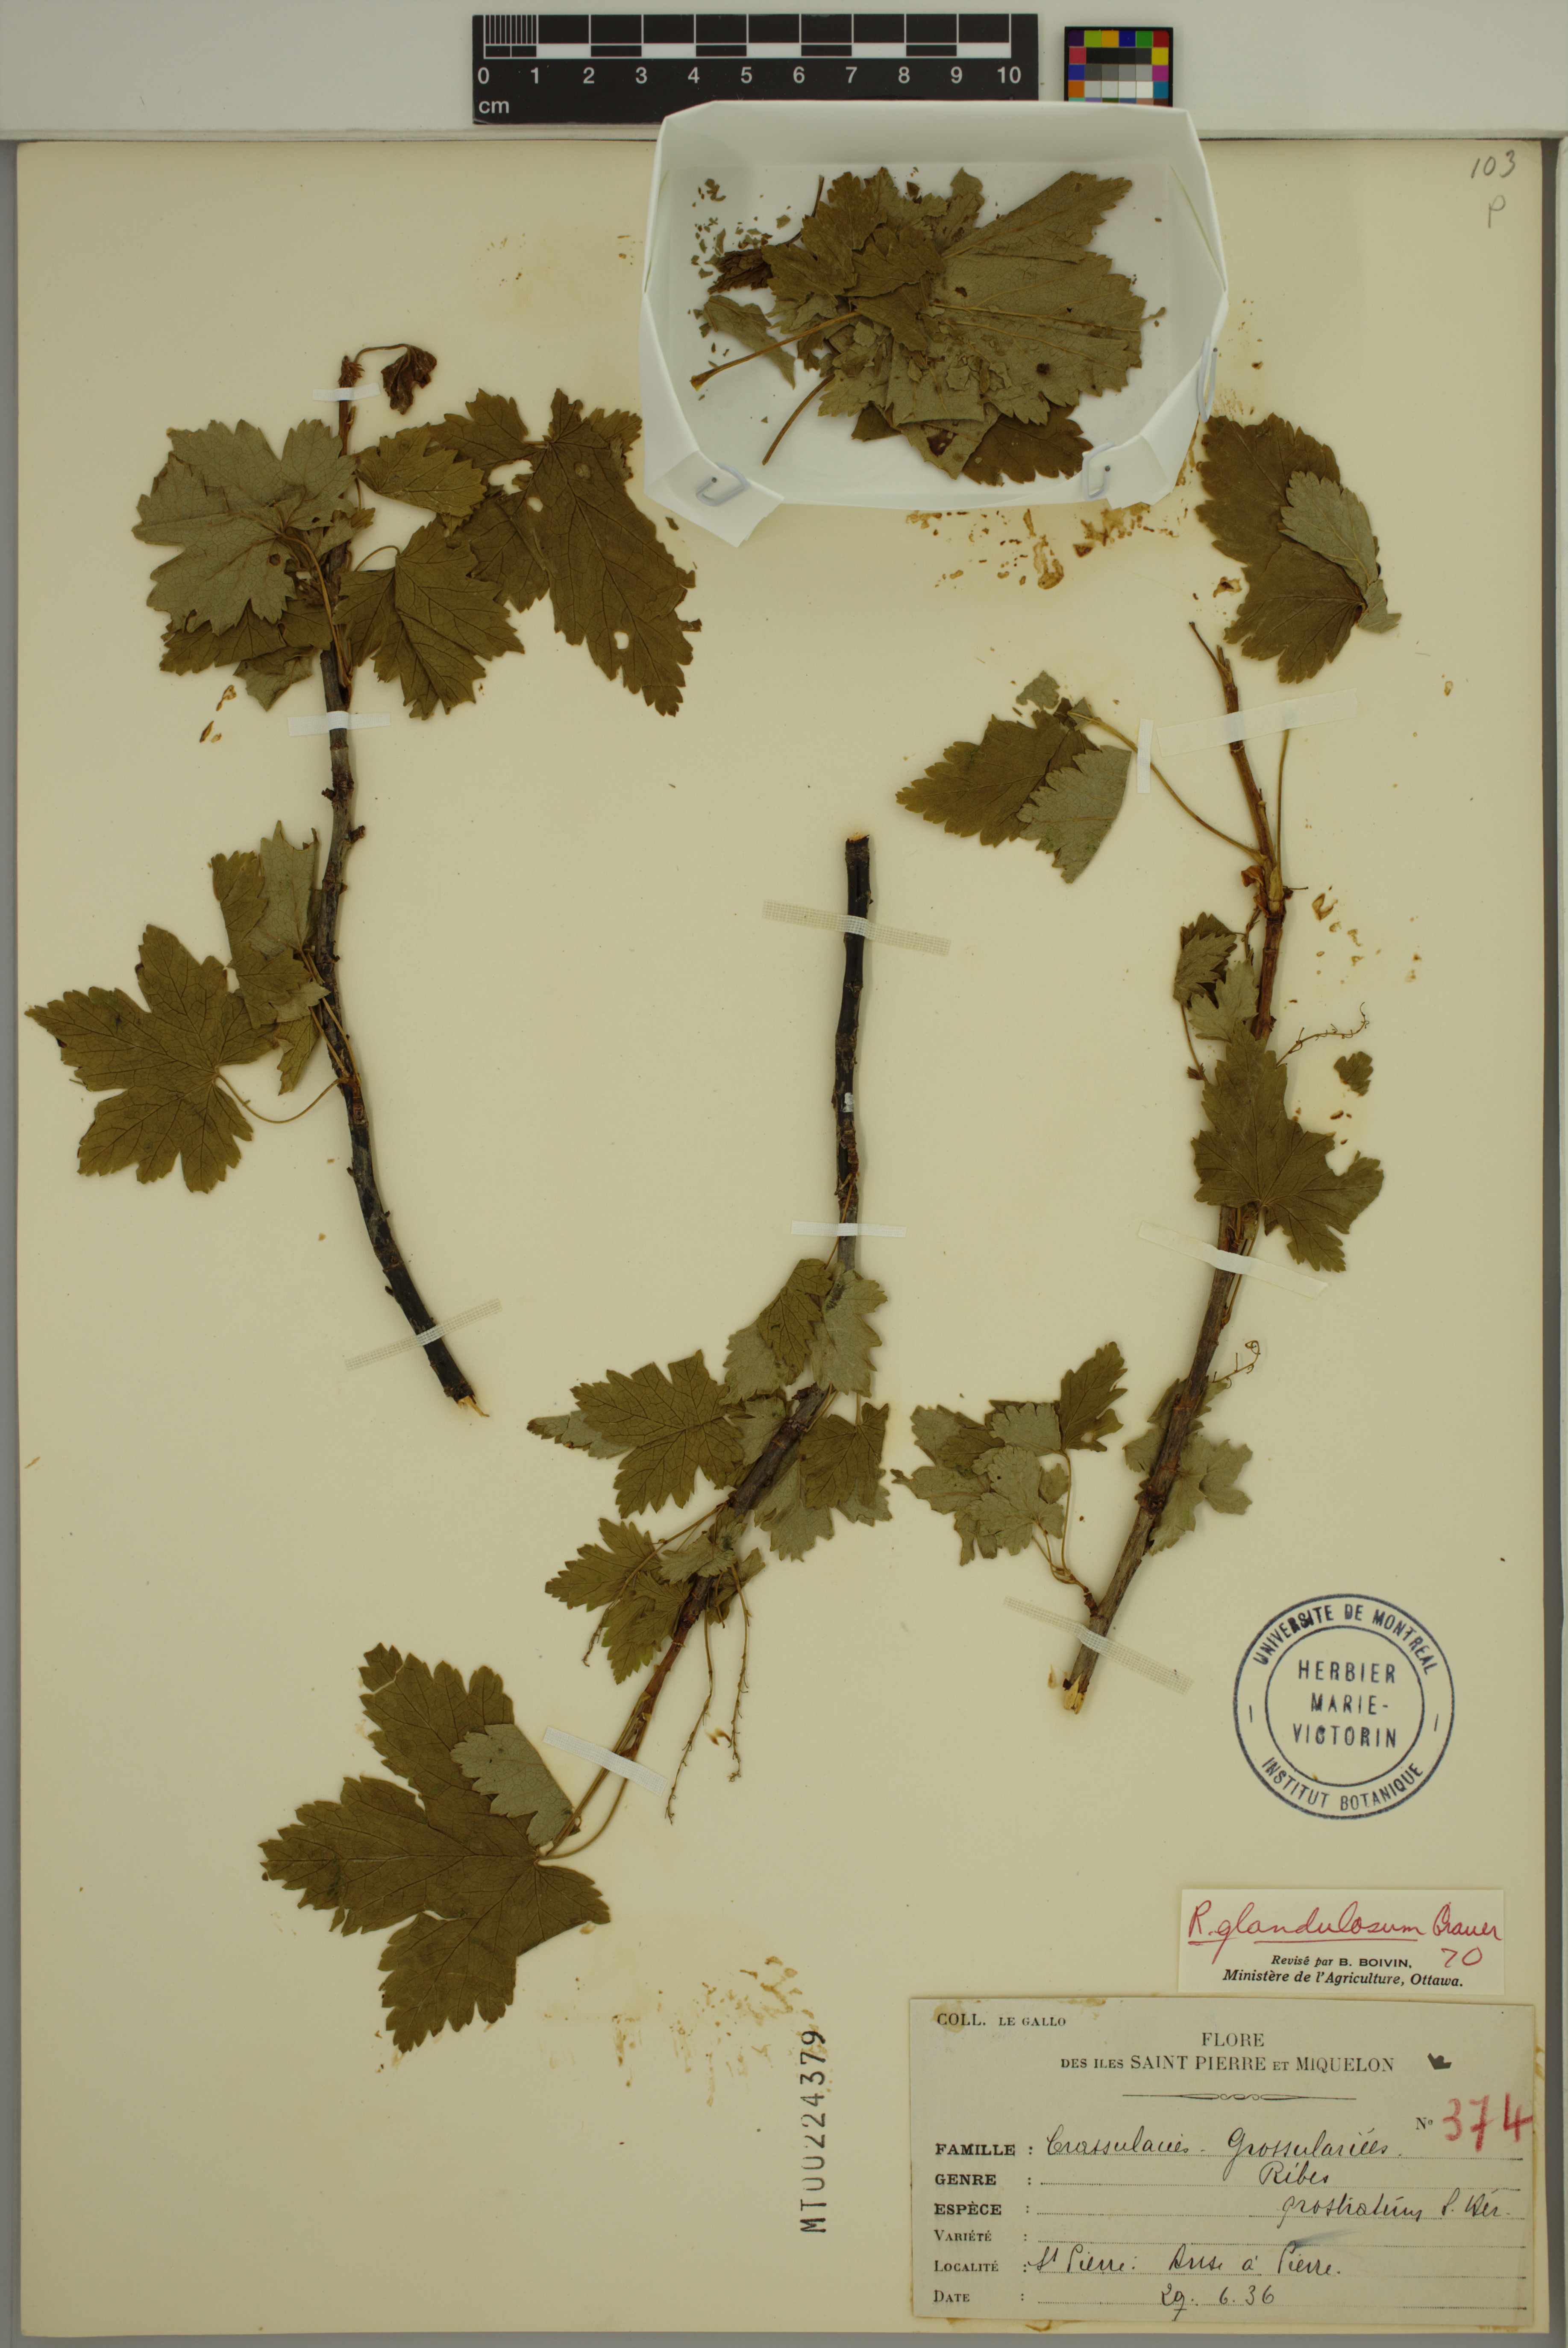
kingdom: Plantae
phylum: Tracheophyta
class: Magnoliopsida
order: Saxifragales
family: Grossulariaceae
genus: Ribes
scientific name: Ribes glandulosum
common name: Skunk currant
